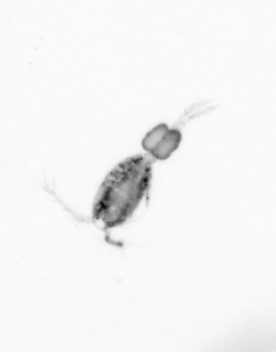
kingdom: Animalia
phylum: Arthropoda
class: Copepoda
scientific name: Copepoda
